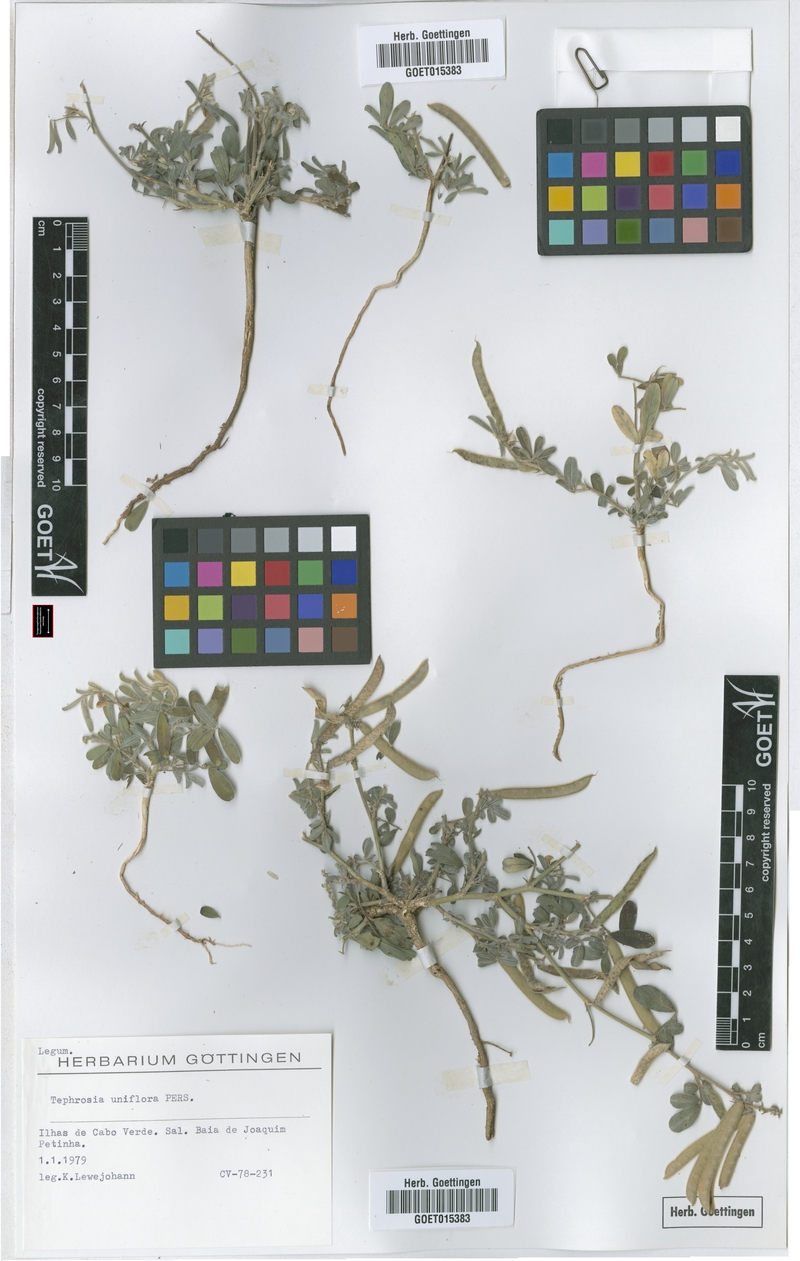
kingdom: Plantae
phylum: Tracheophyta
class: Magnoliopsida
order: Fabales
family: Fabaceae
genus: Tephrosia
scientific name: Tephrosia uniflora
